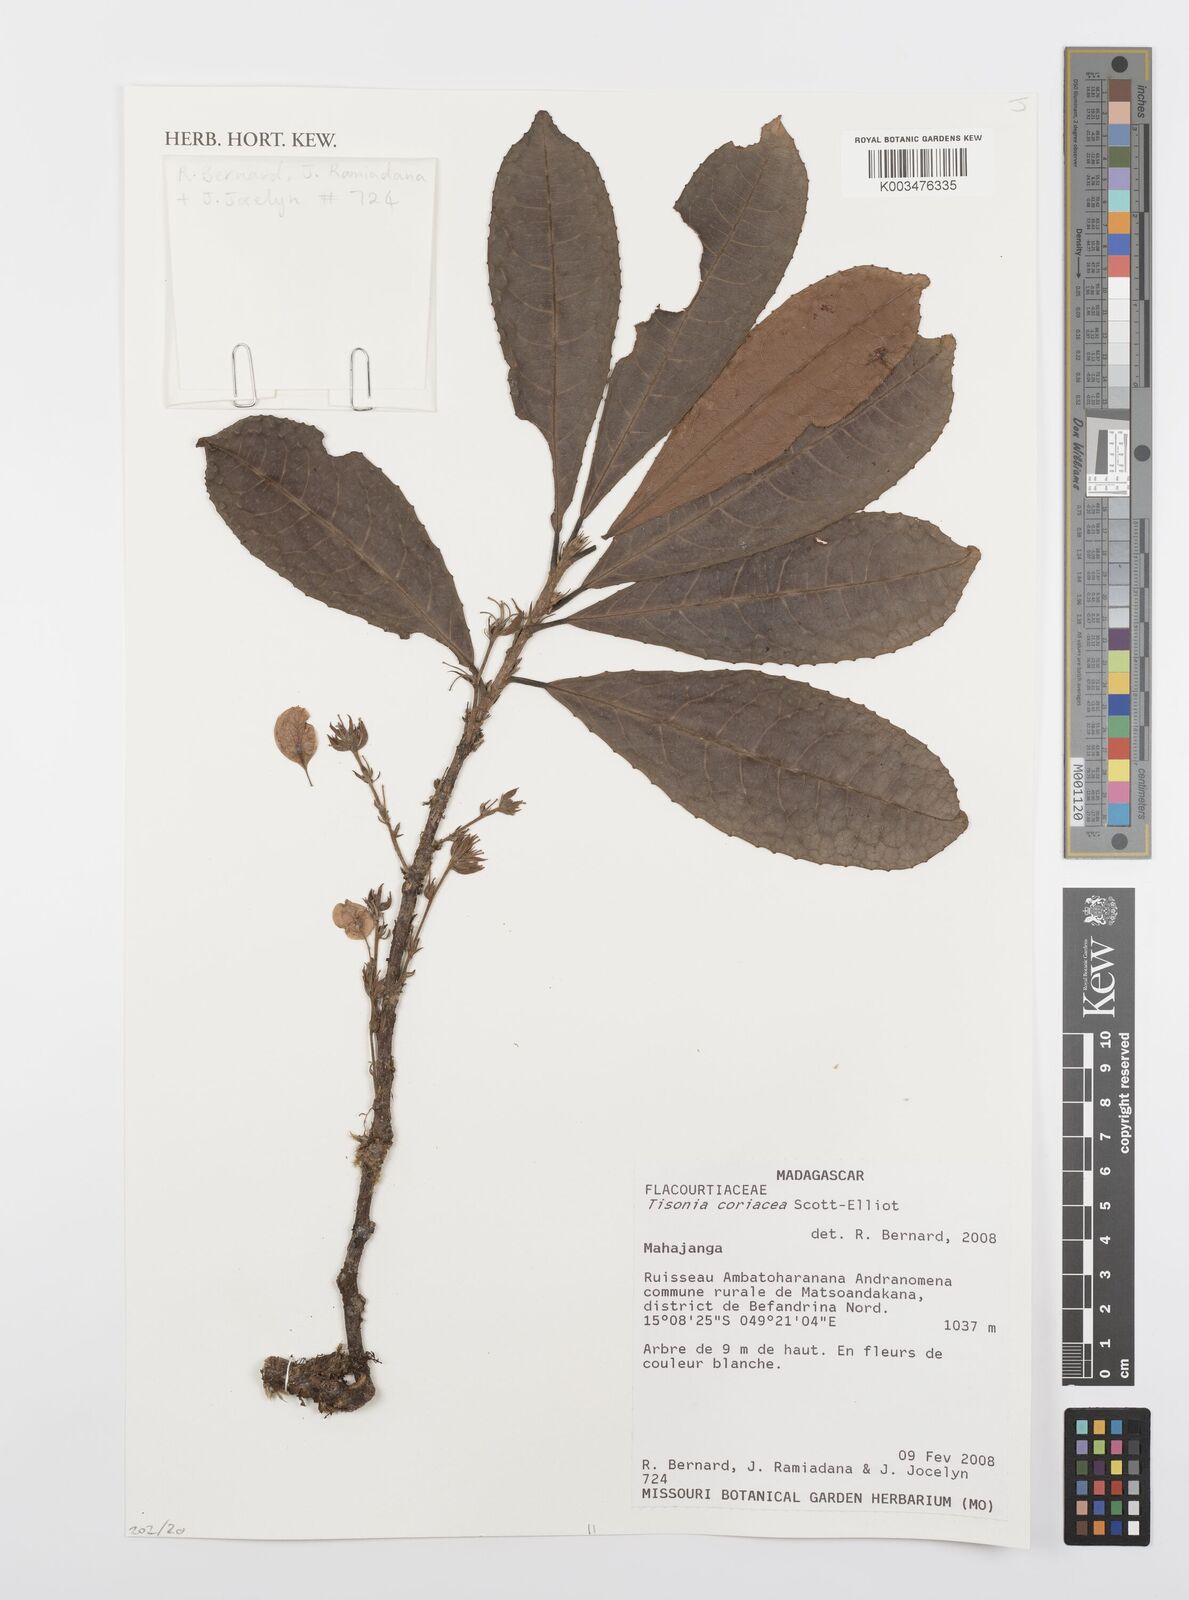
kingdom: Plantae
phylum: Tracheophyta
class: Magnoliopsida
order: Malpighiales
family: Salicaceae
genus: Tisonia
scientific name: Tisonia coriacea
